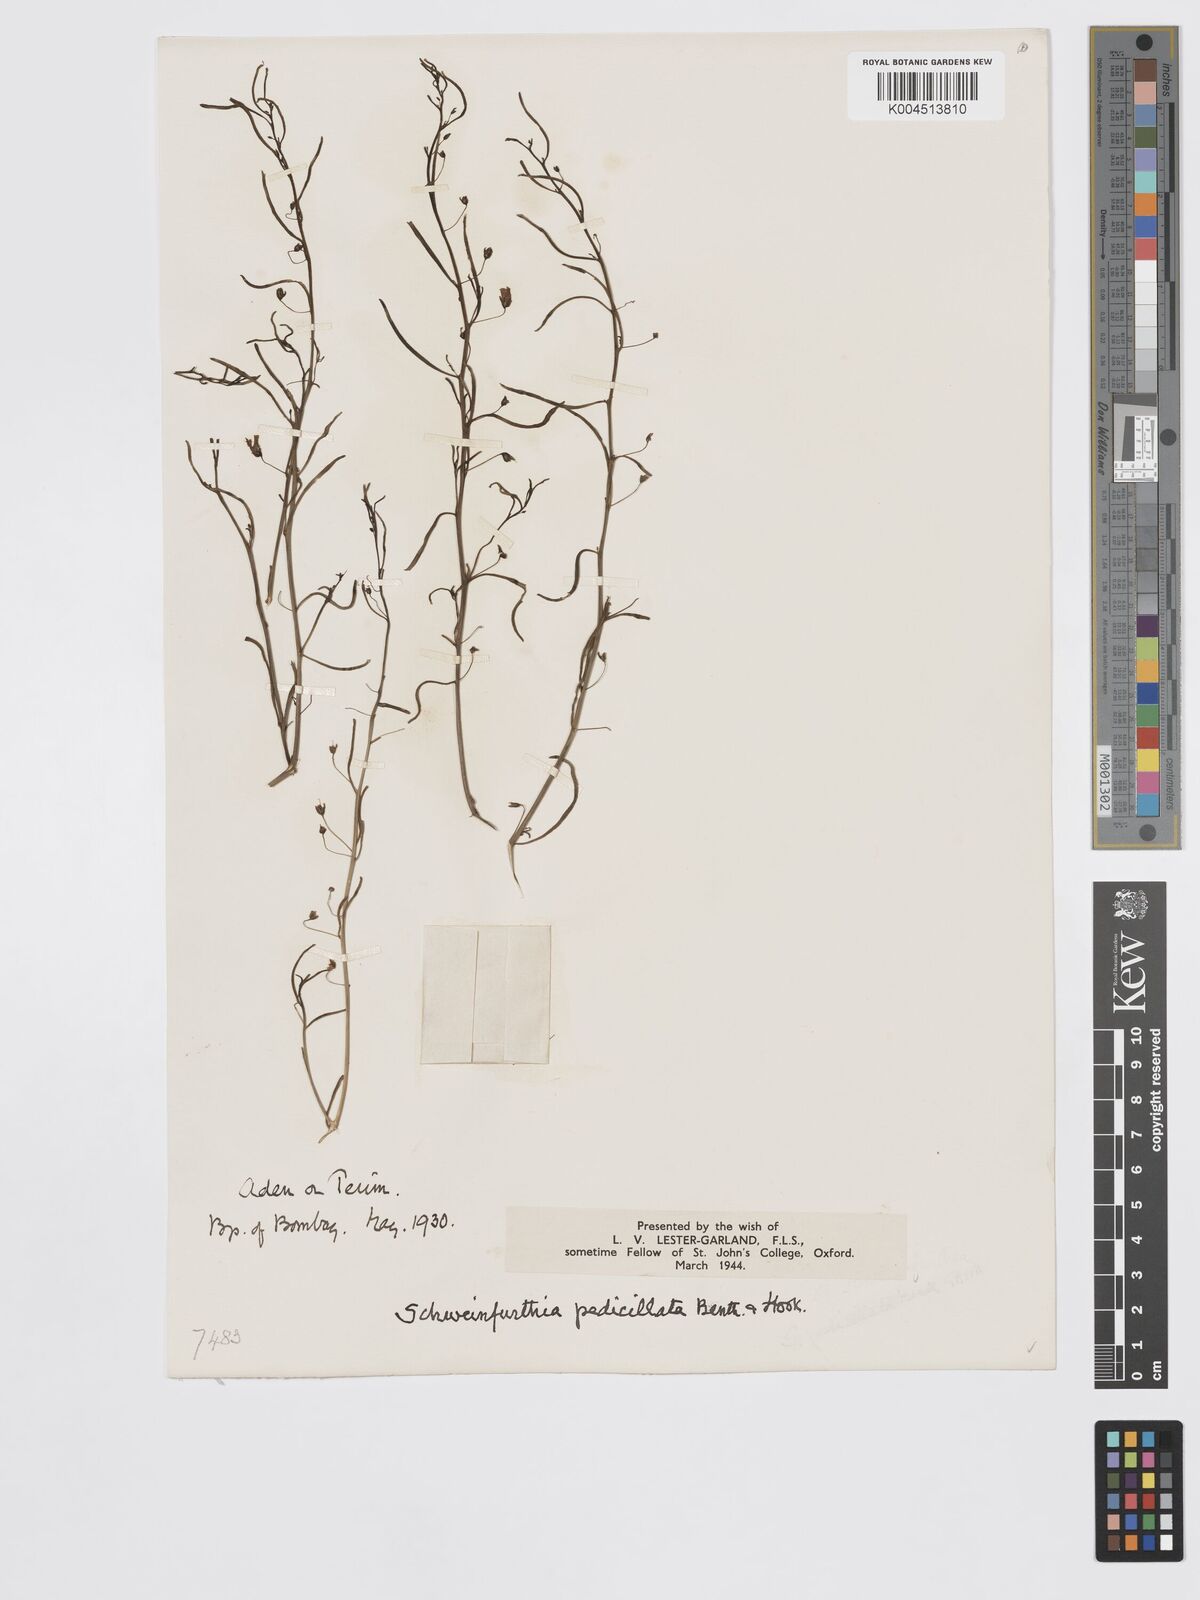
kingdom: Plantae
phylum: Tracheophyta
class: Magnoliopsida
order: Lamiales
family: Plantaginaceae
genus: Schweinfurthia
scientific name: Schweinfurthia pedicellata
